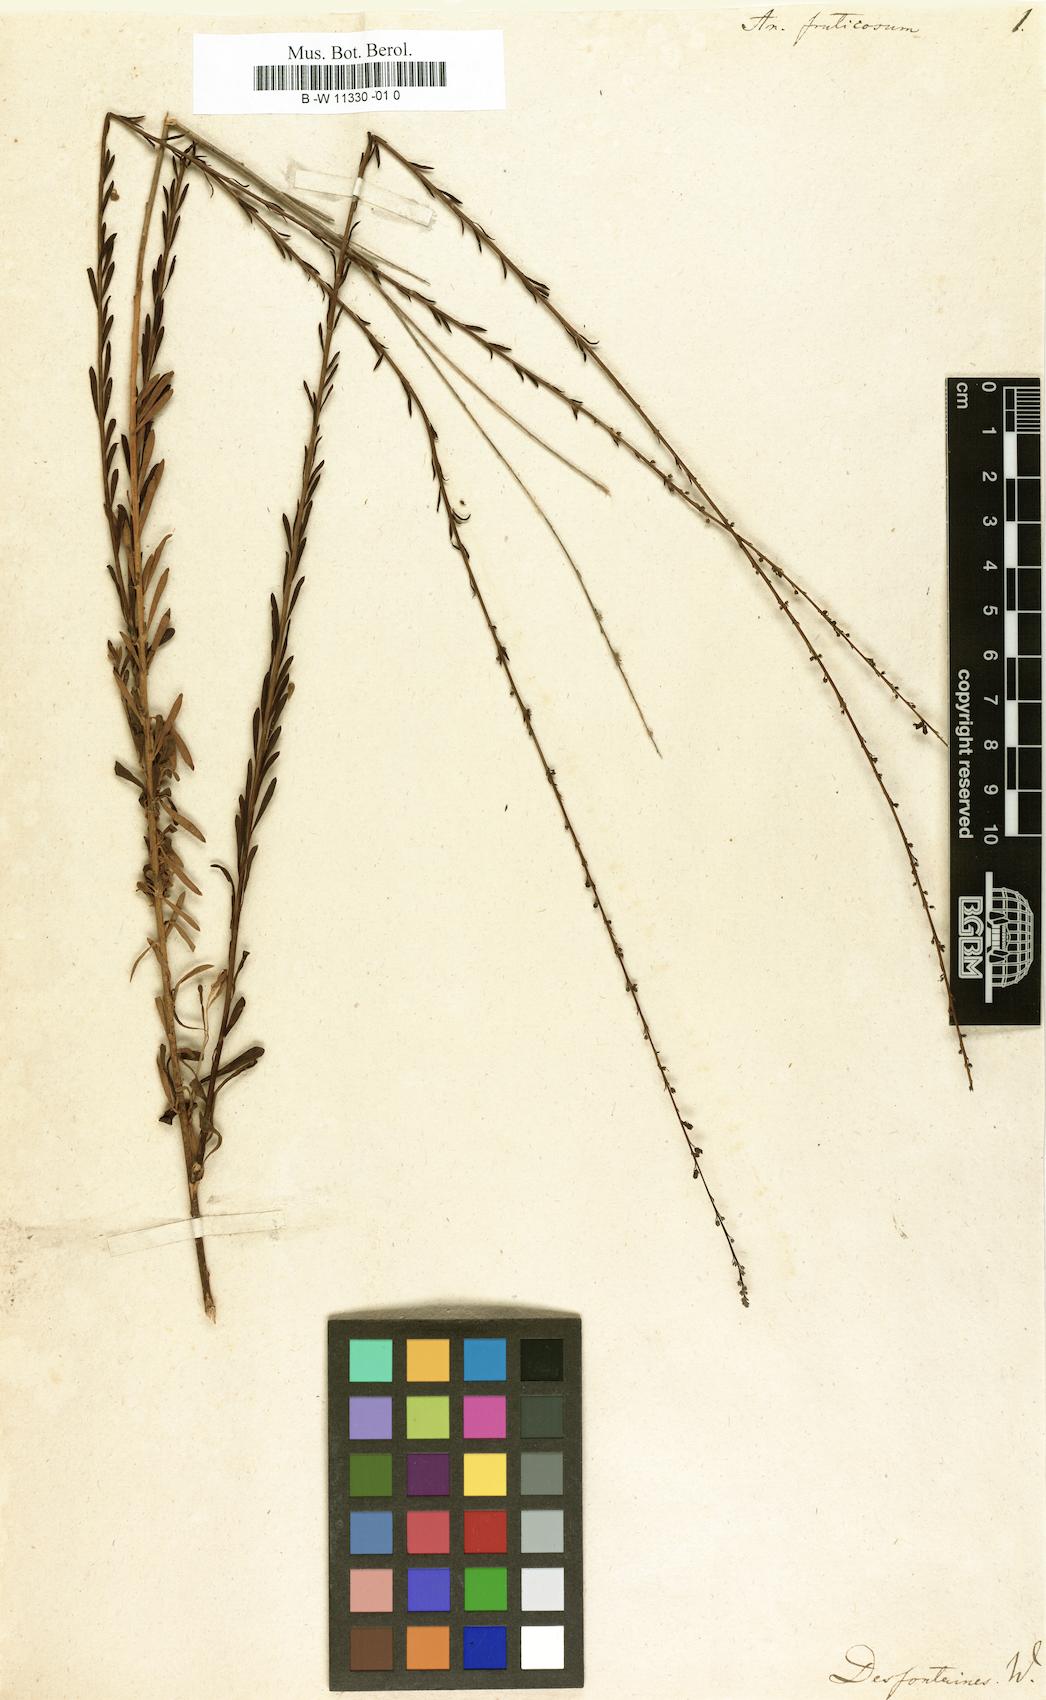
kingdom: Plantae
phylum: Tracheophyta
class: Magnoliopsida
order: Lamiales
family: Plantaginaceae
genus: Anarrhinum
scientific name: Anarrhinum fruticosum
